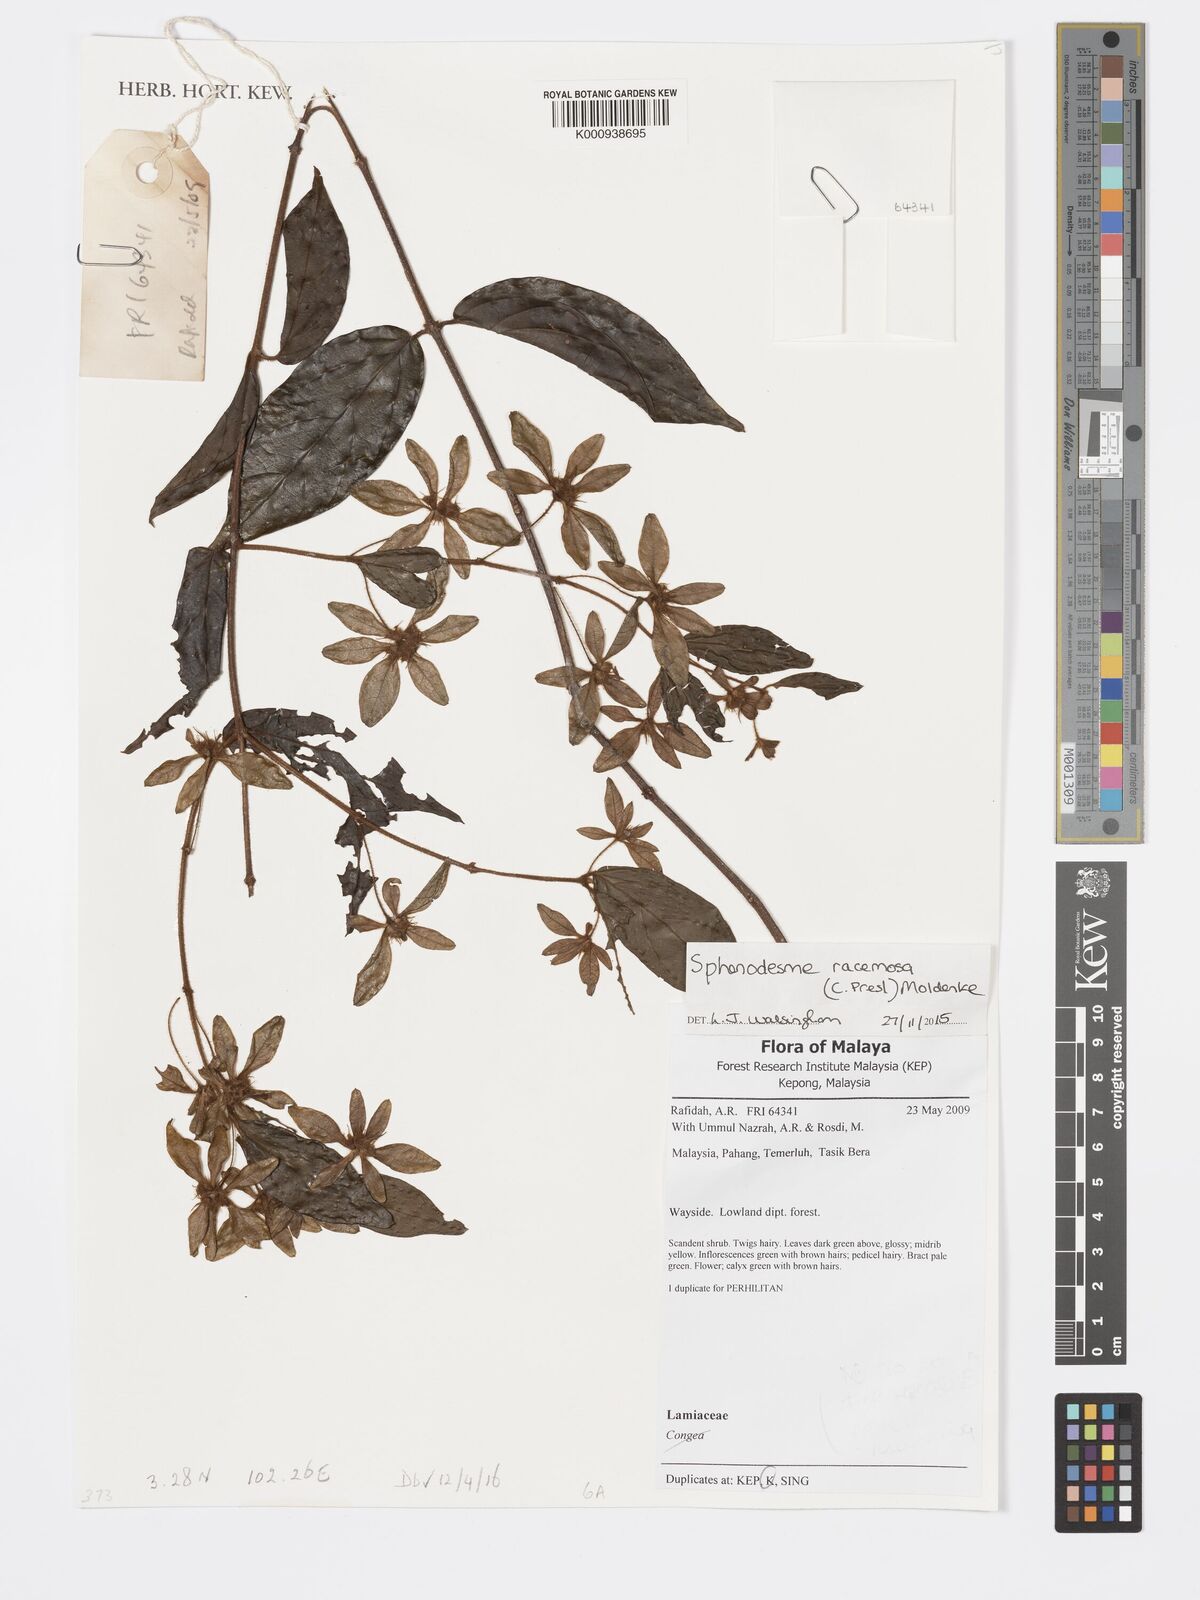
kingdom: Plantae
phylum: Tracheophyta
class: Magnoliopsida
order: Lamiales
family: Lamiaceae
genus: Sphenodesme
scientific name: Sphenodesme racemosa
